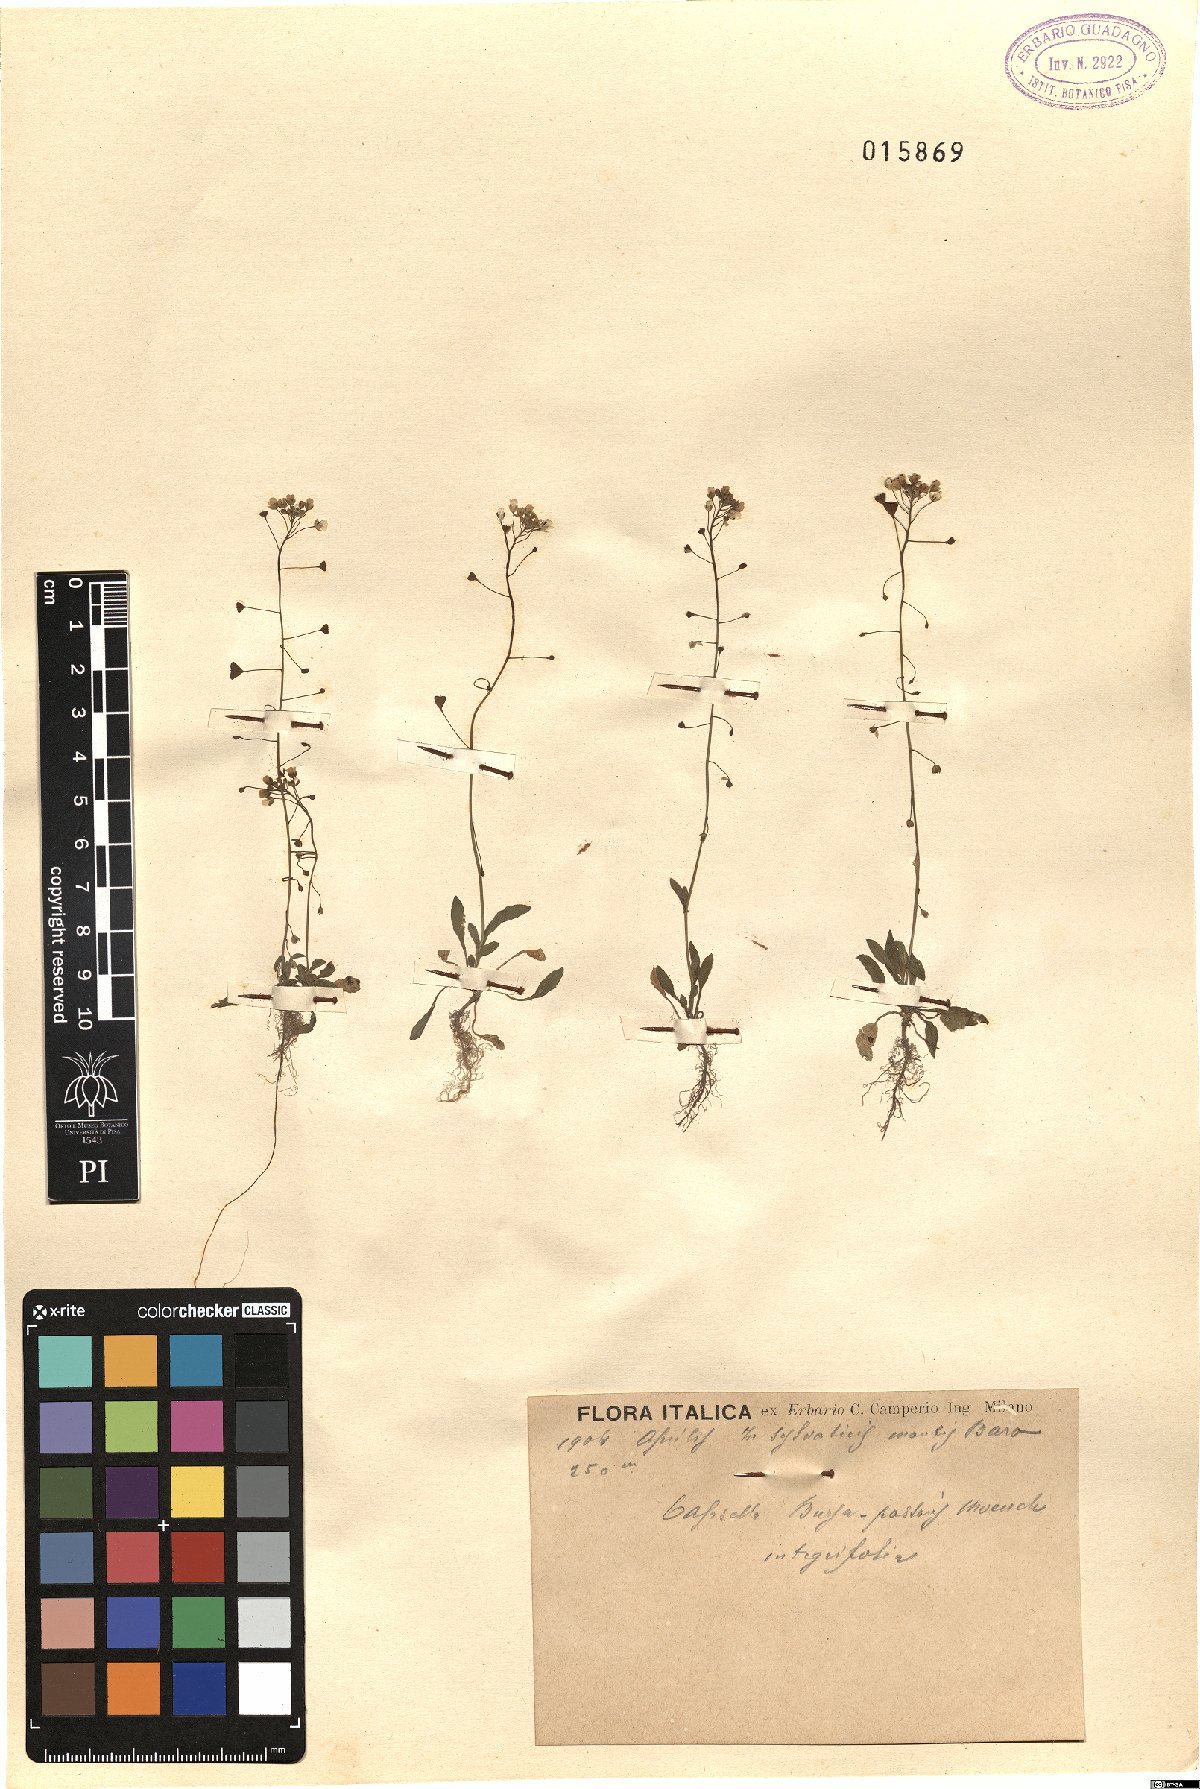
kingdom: Plantae
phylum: Tracheophyta
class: Magnoliopsida
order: Brassicales
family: Brassicaceae
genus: Capsella
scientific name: Capsella bursa-pastoris
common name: Shepherd's purse
